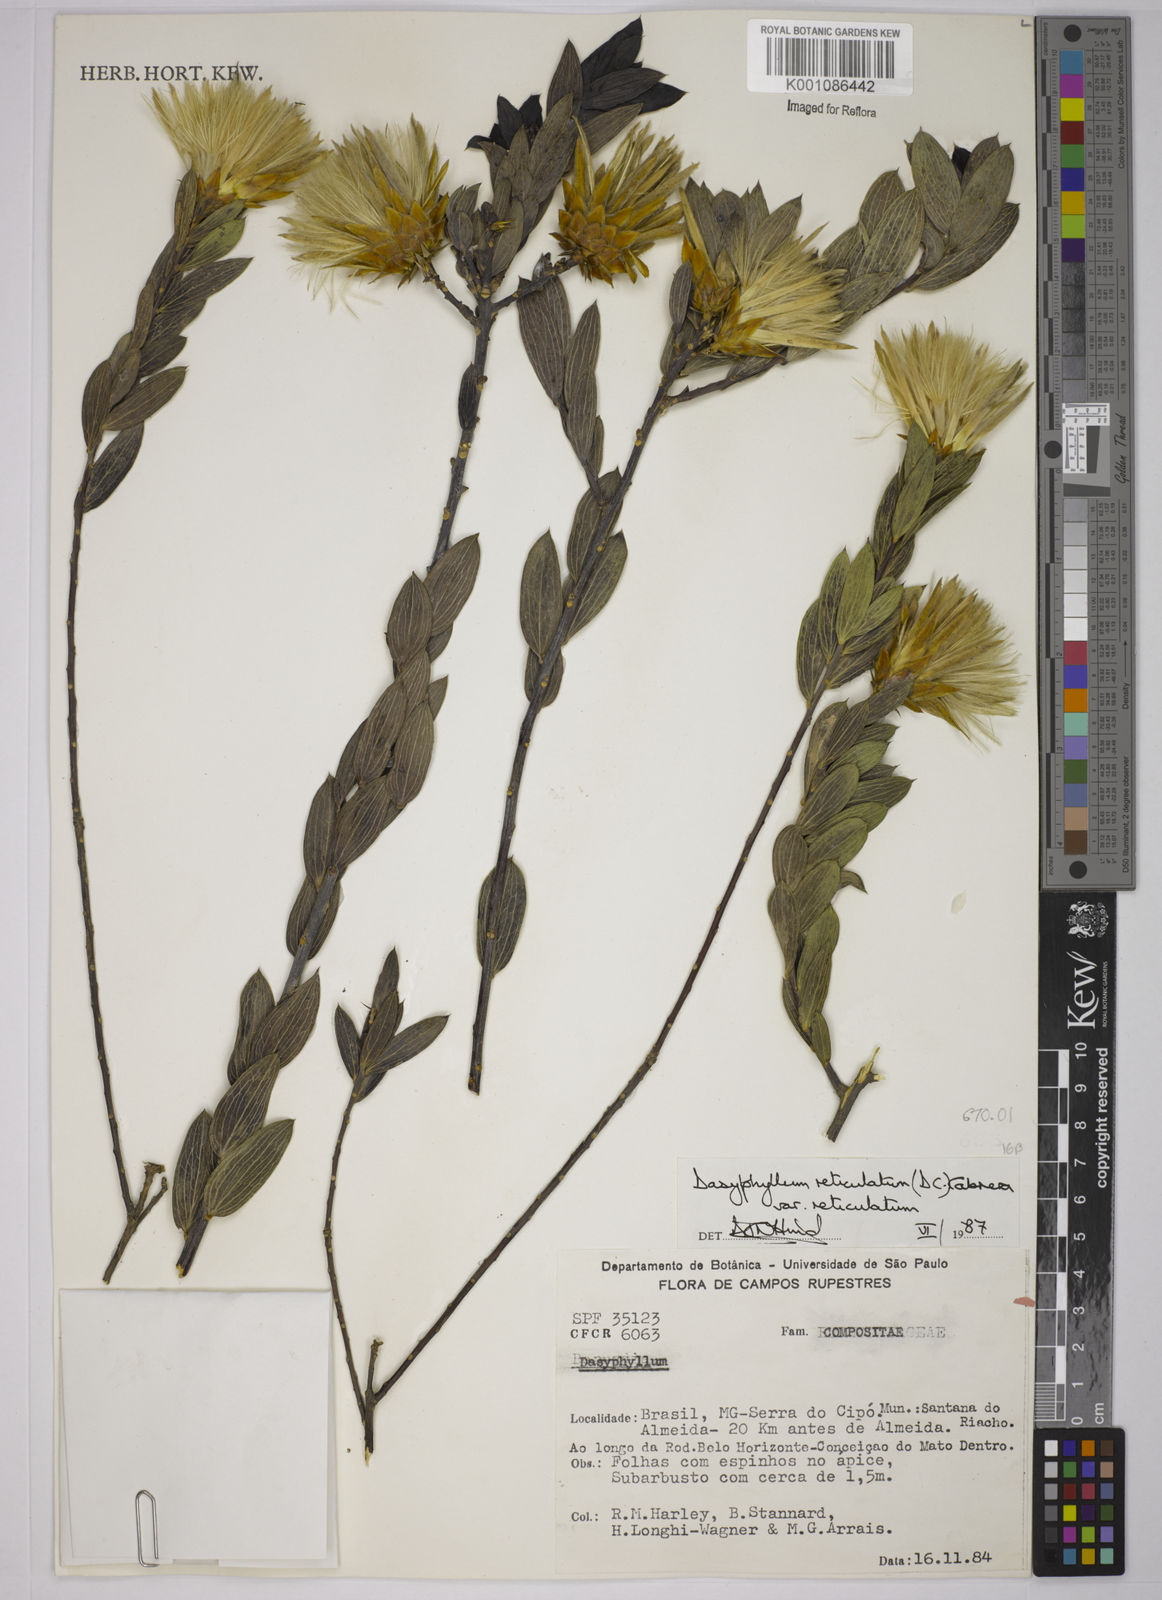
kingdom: Plantae
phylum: Tracheophyta
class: Magnoliopsida
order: Asterales
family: Asteraceae
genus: Dasyphyllum
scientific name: Dasyphyllum reticulatum
